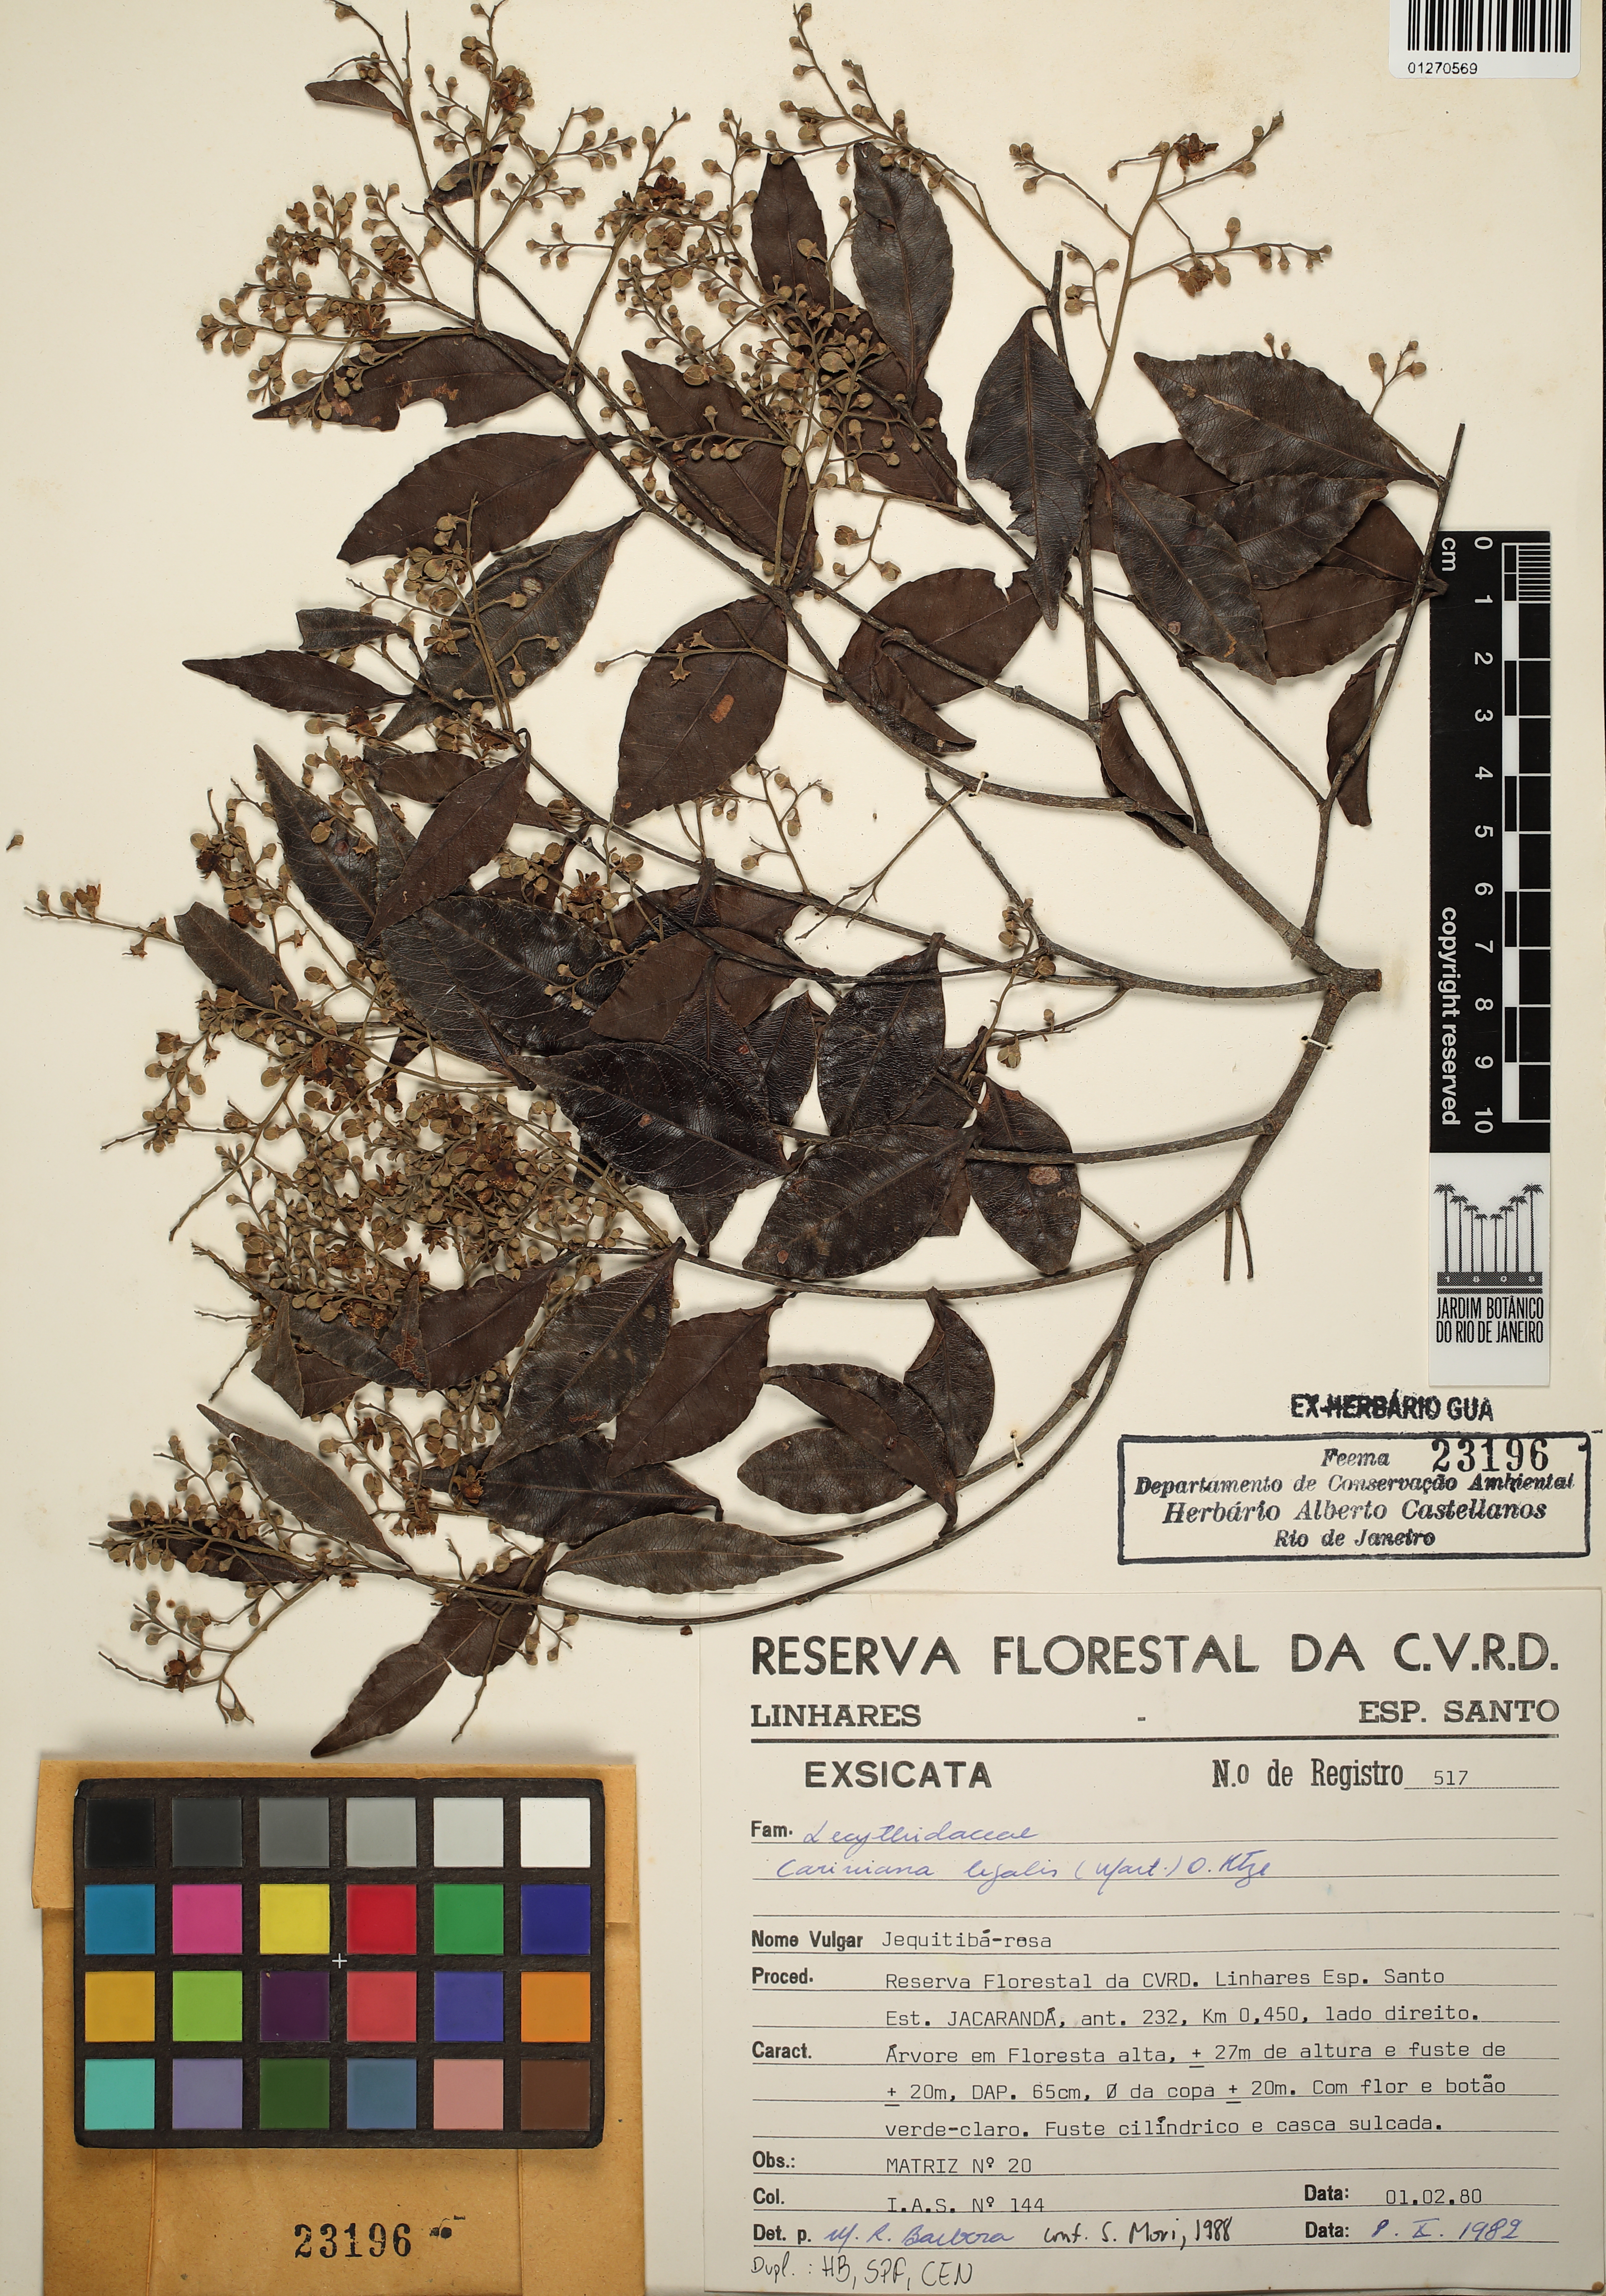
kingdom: Plantae
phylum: Tracheophyta
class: Magnoliopsida
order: Ericales
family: Lecythidaceae
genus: Cariniana
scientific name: Cariniana legalis
